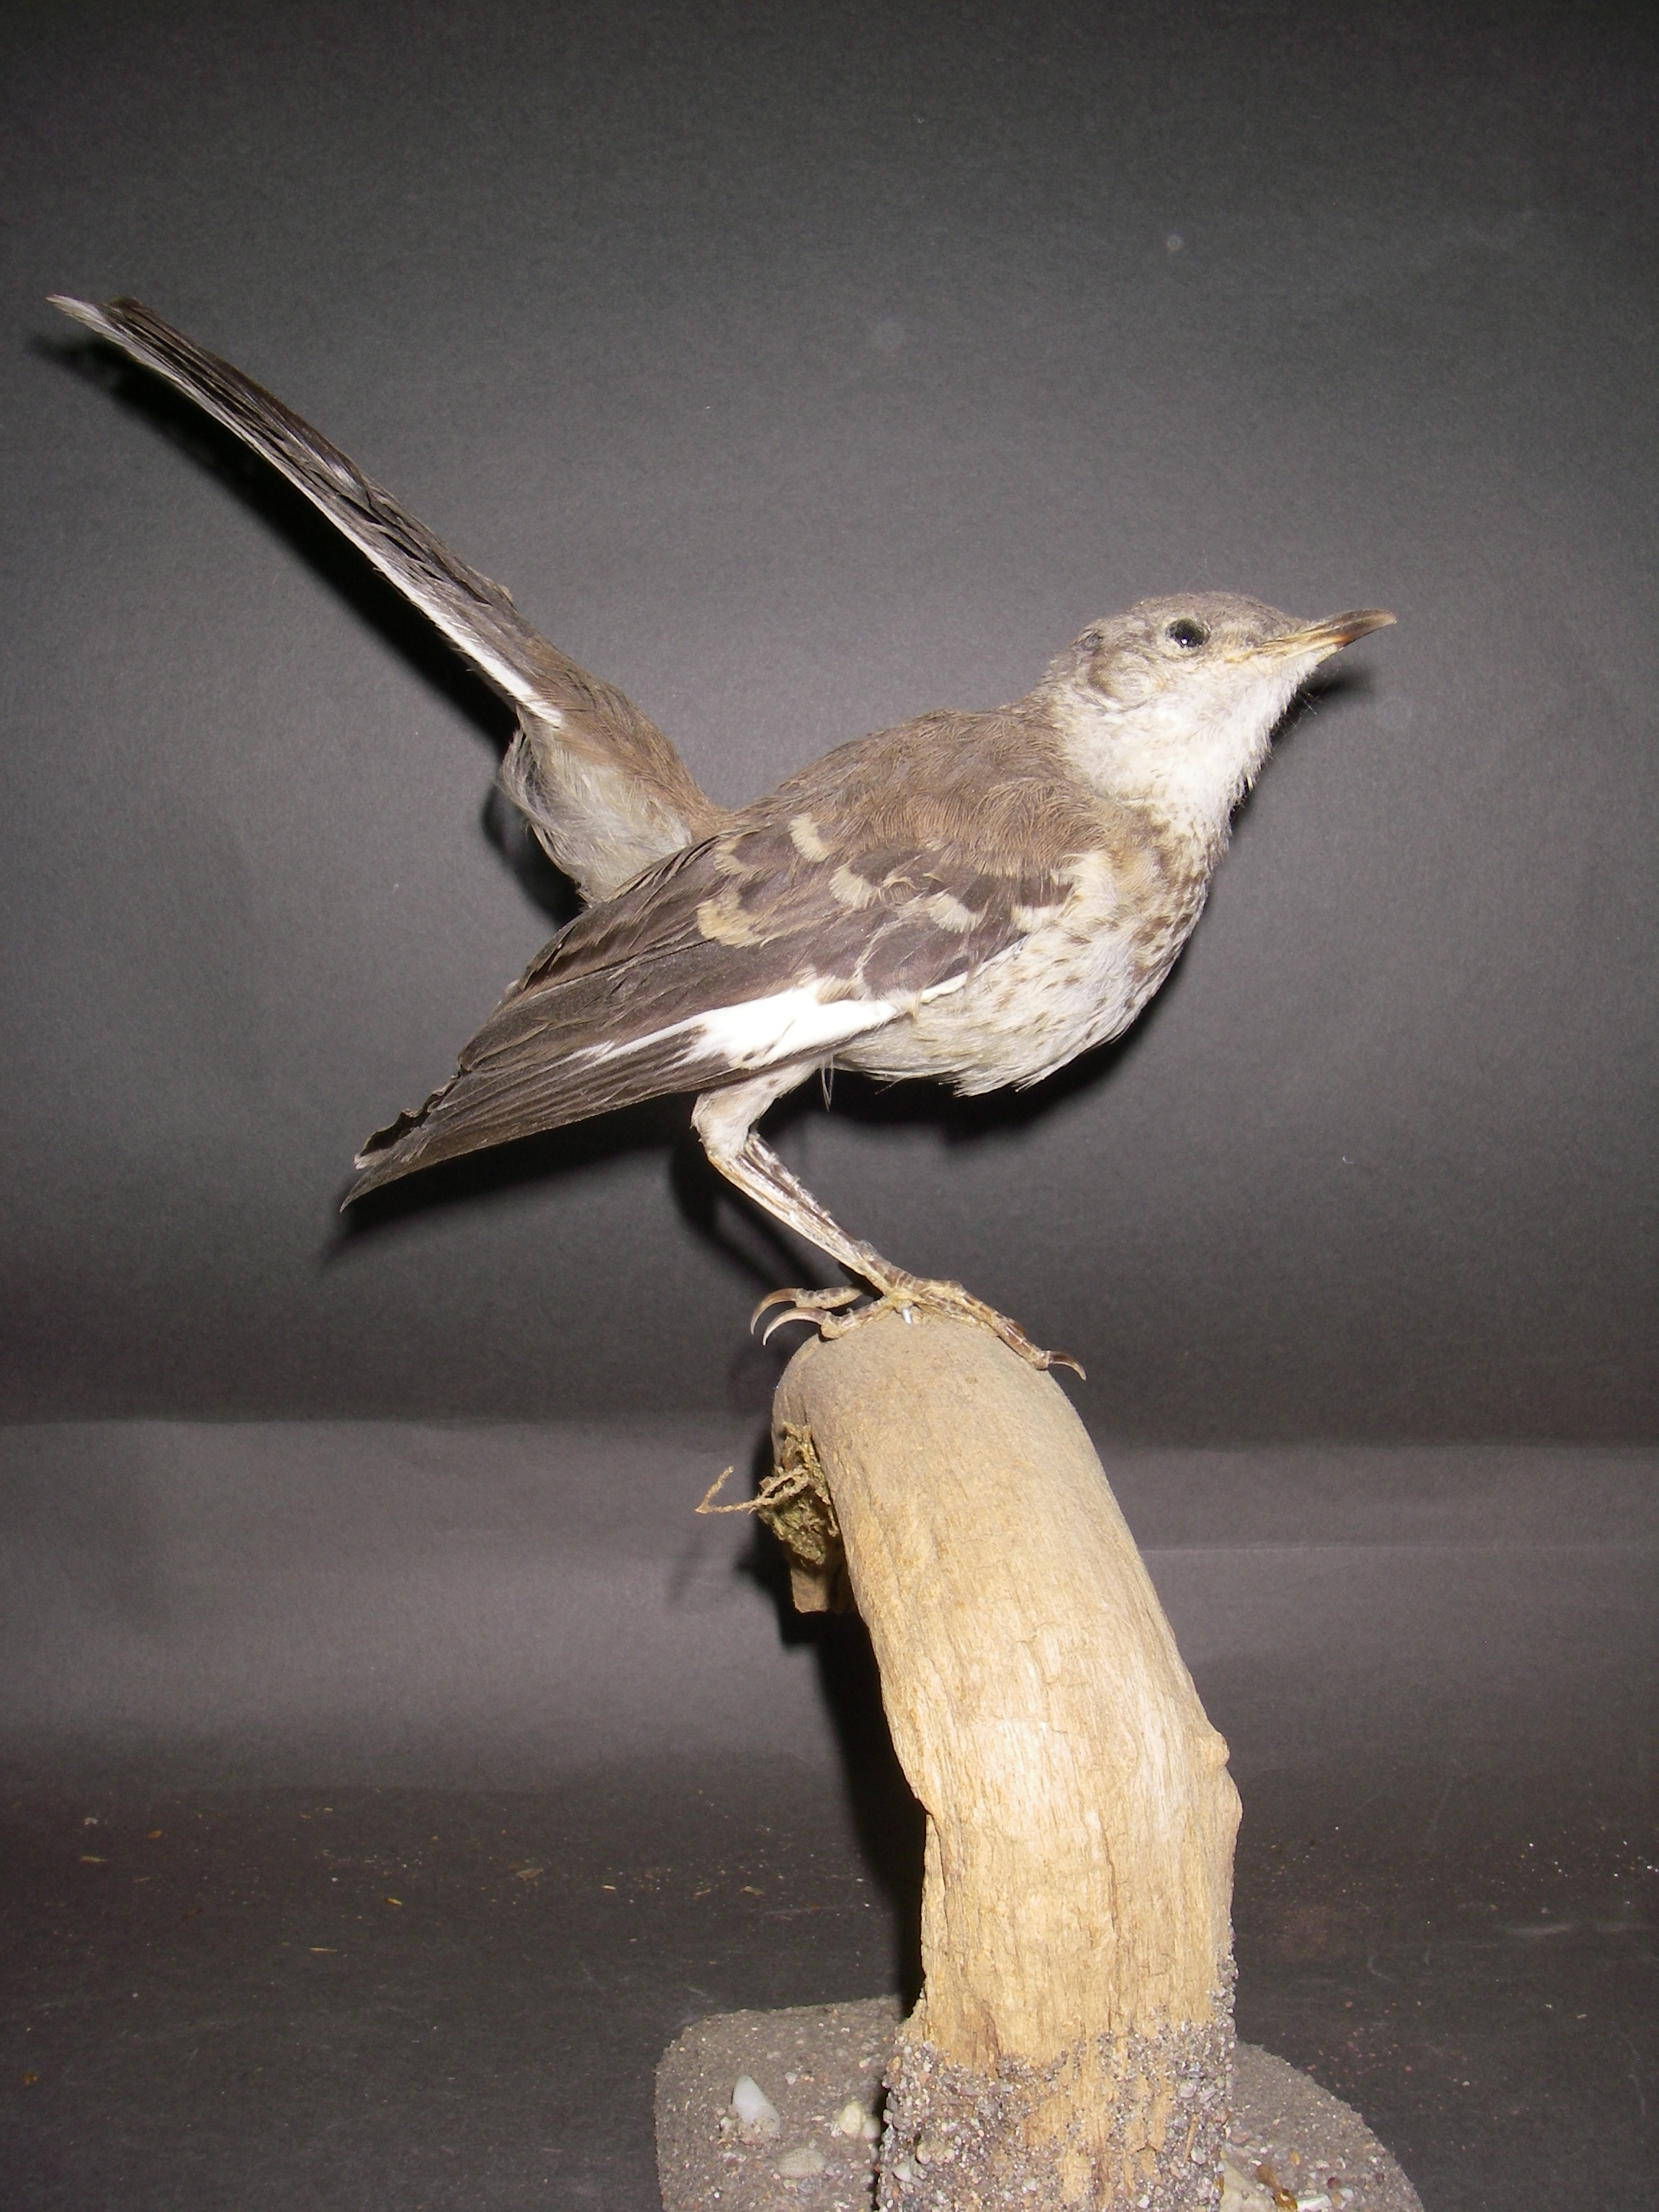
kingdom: Animalia
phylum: Chordata
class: Aves
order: Passeriformes
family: Mimidae
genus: Mimus
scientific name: Mimus polyglottos
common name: Northern mockingbird
